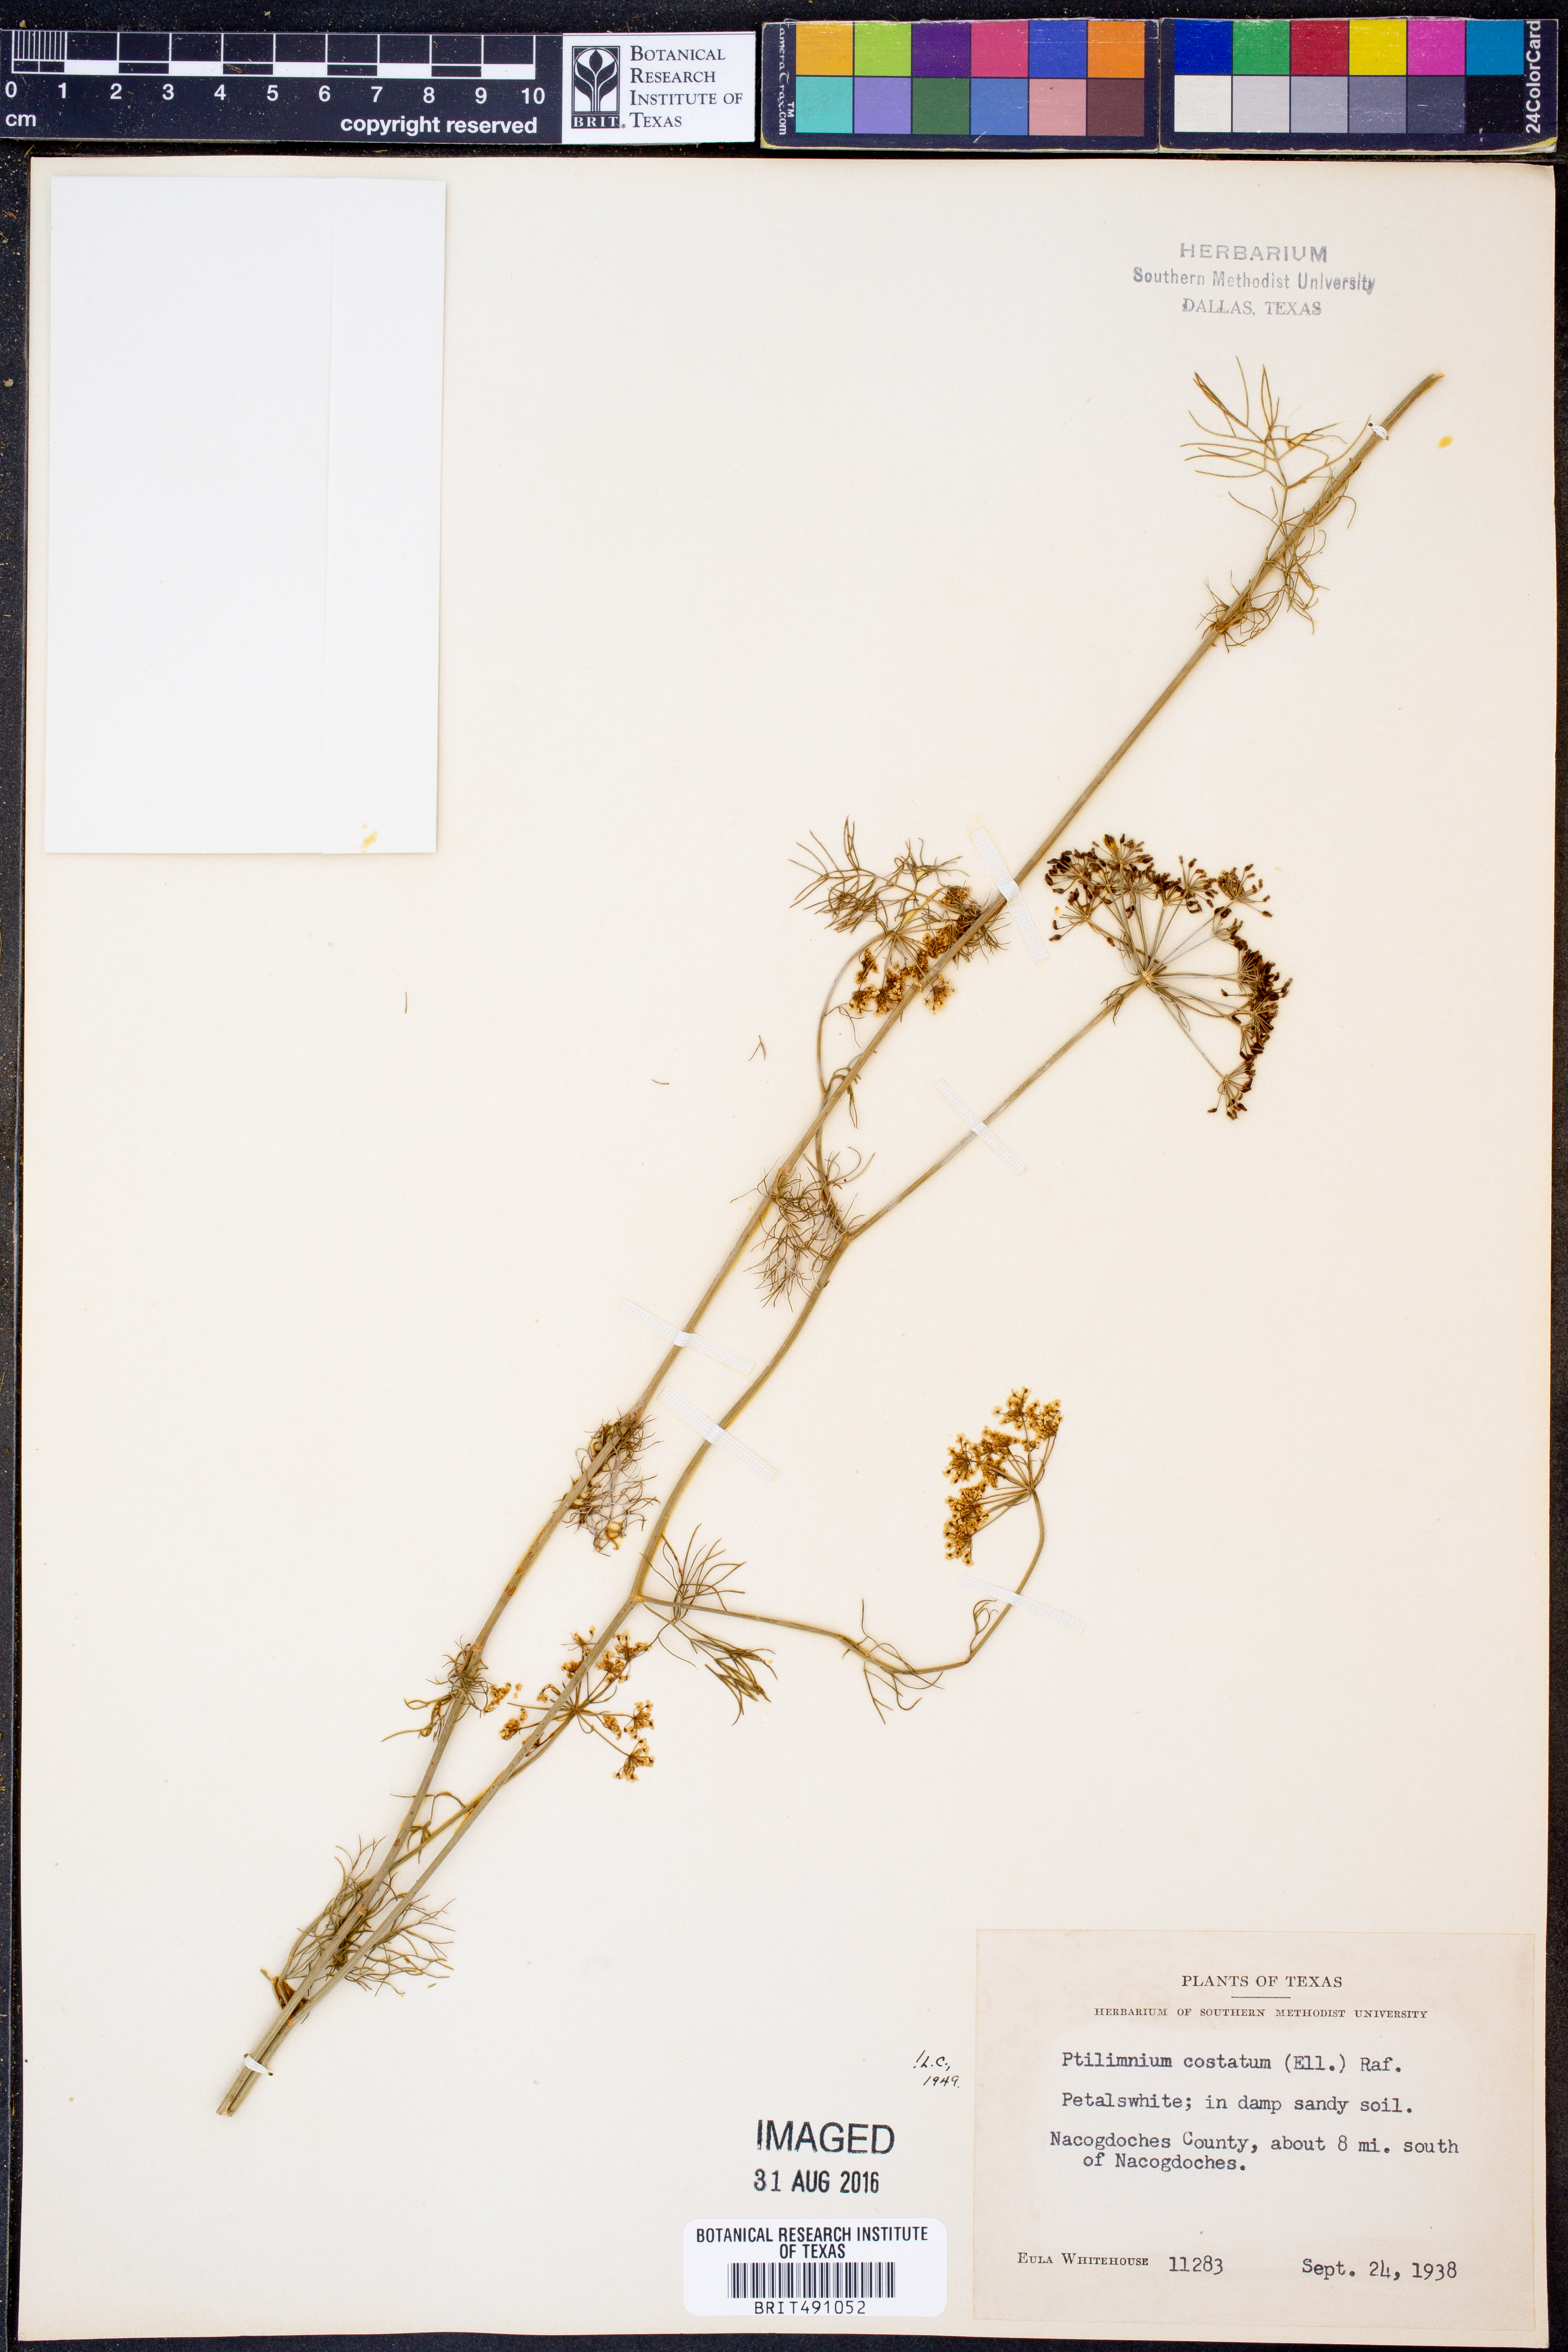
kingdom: Plantae
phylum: Tracheophyta
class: Magnoliopsida
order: Apiales
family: Apiaceae
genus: Ptilimnium
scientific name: Ptilimnium costatum
